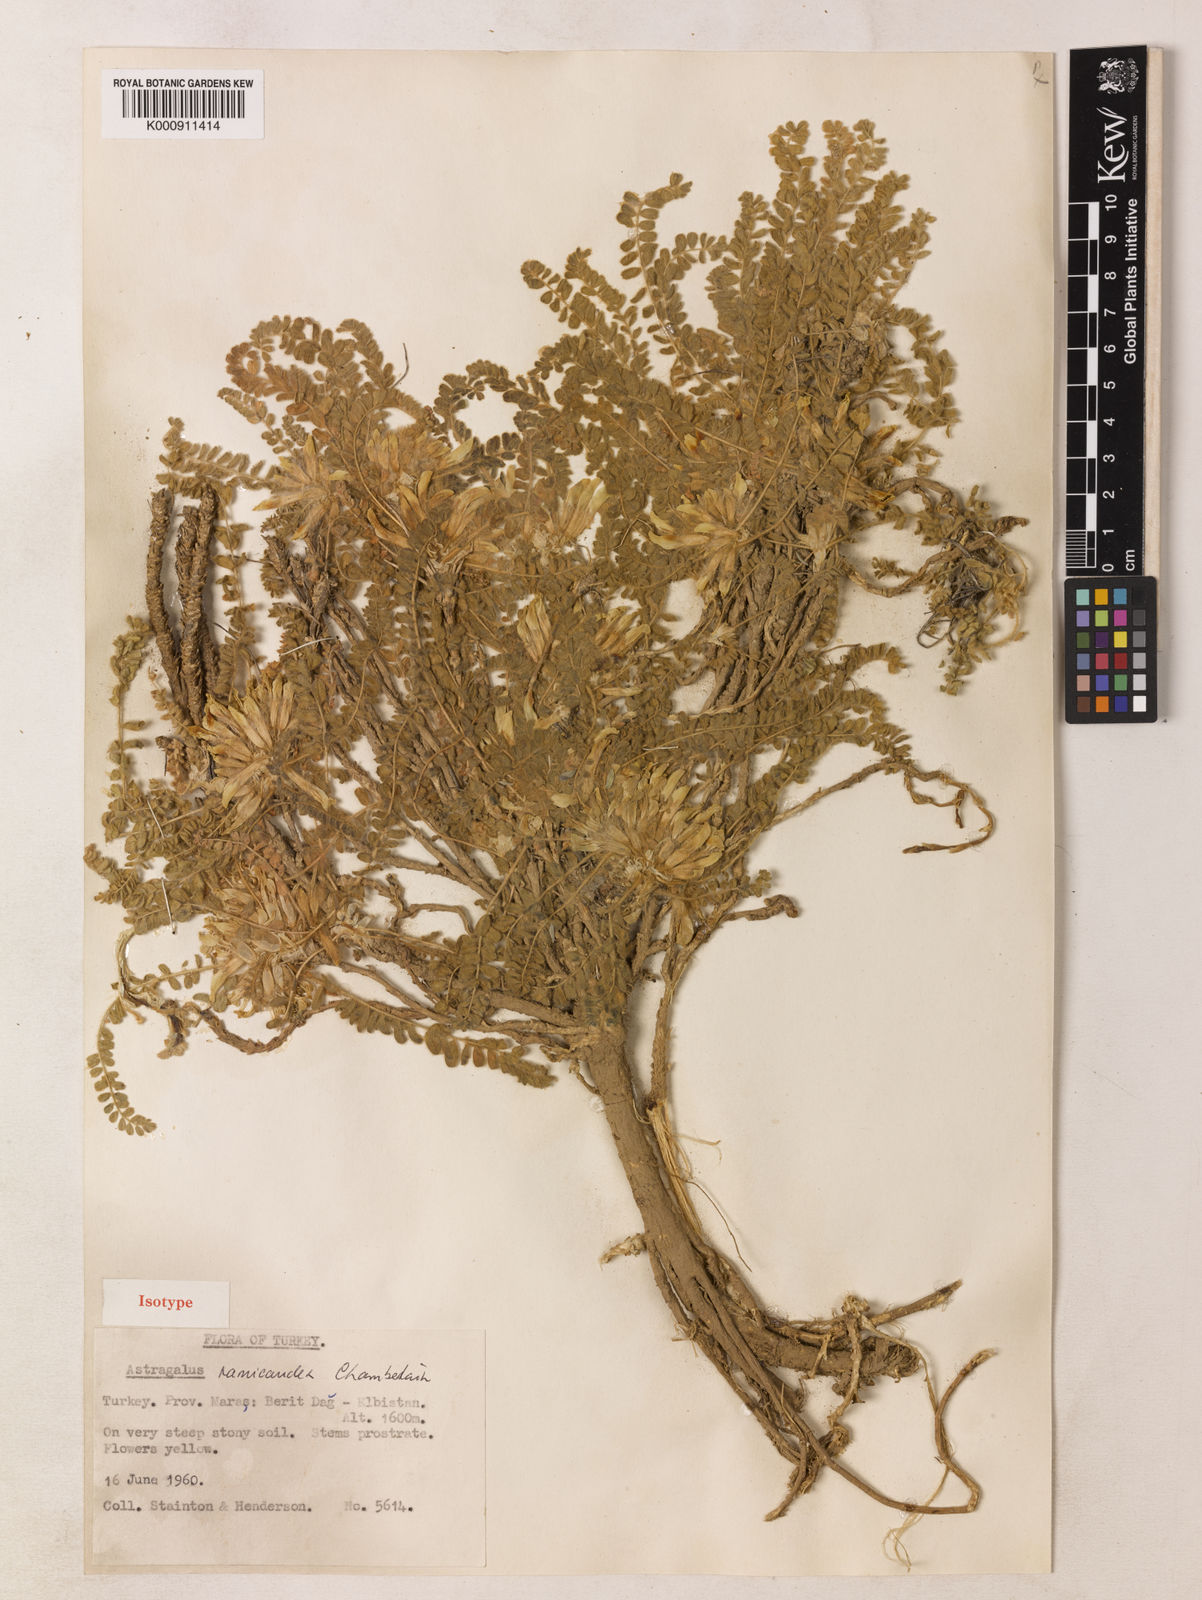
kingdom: Plantae
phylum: Tracheophyta
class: Magnoliopsida
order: Fabales
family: Fabaceae
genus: Astragalus
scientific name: Astragalus pinetorum
